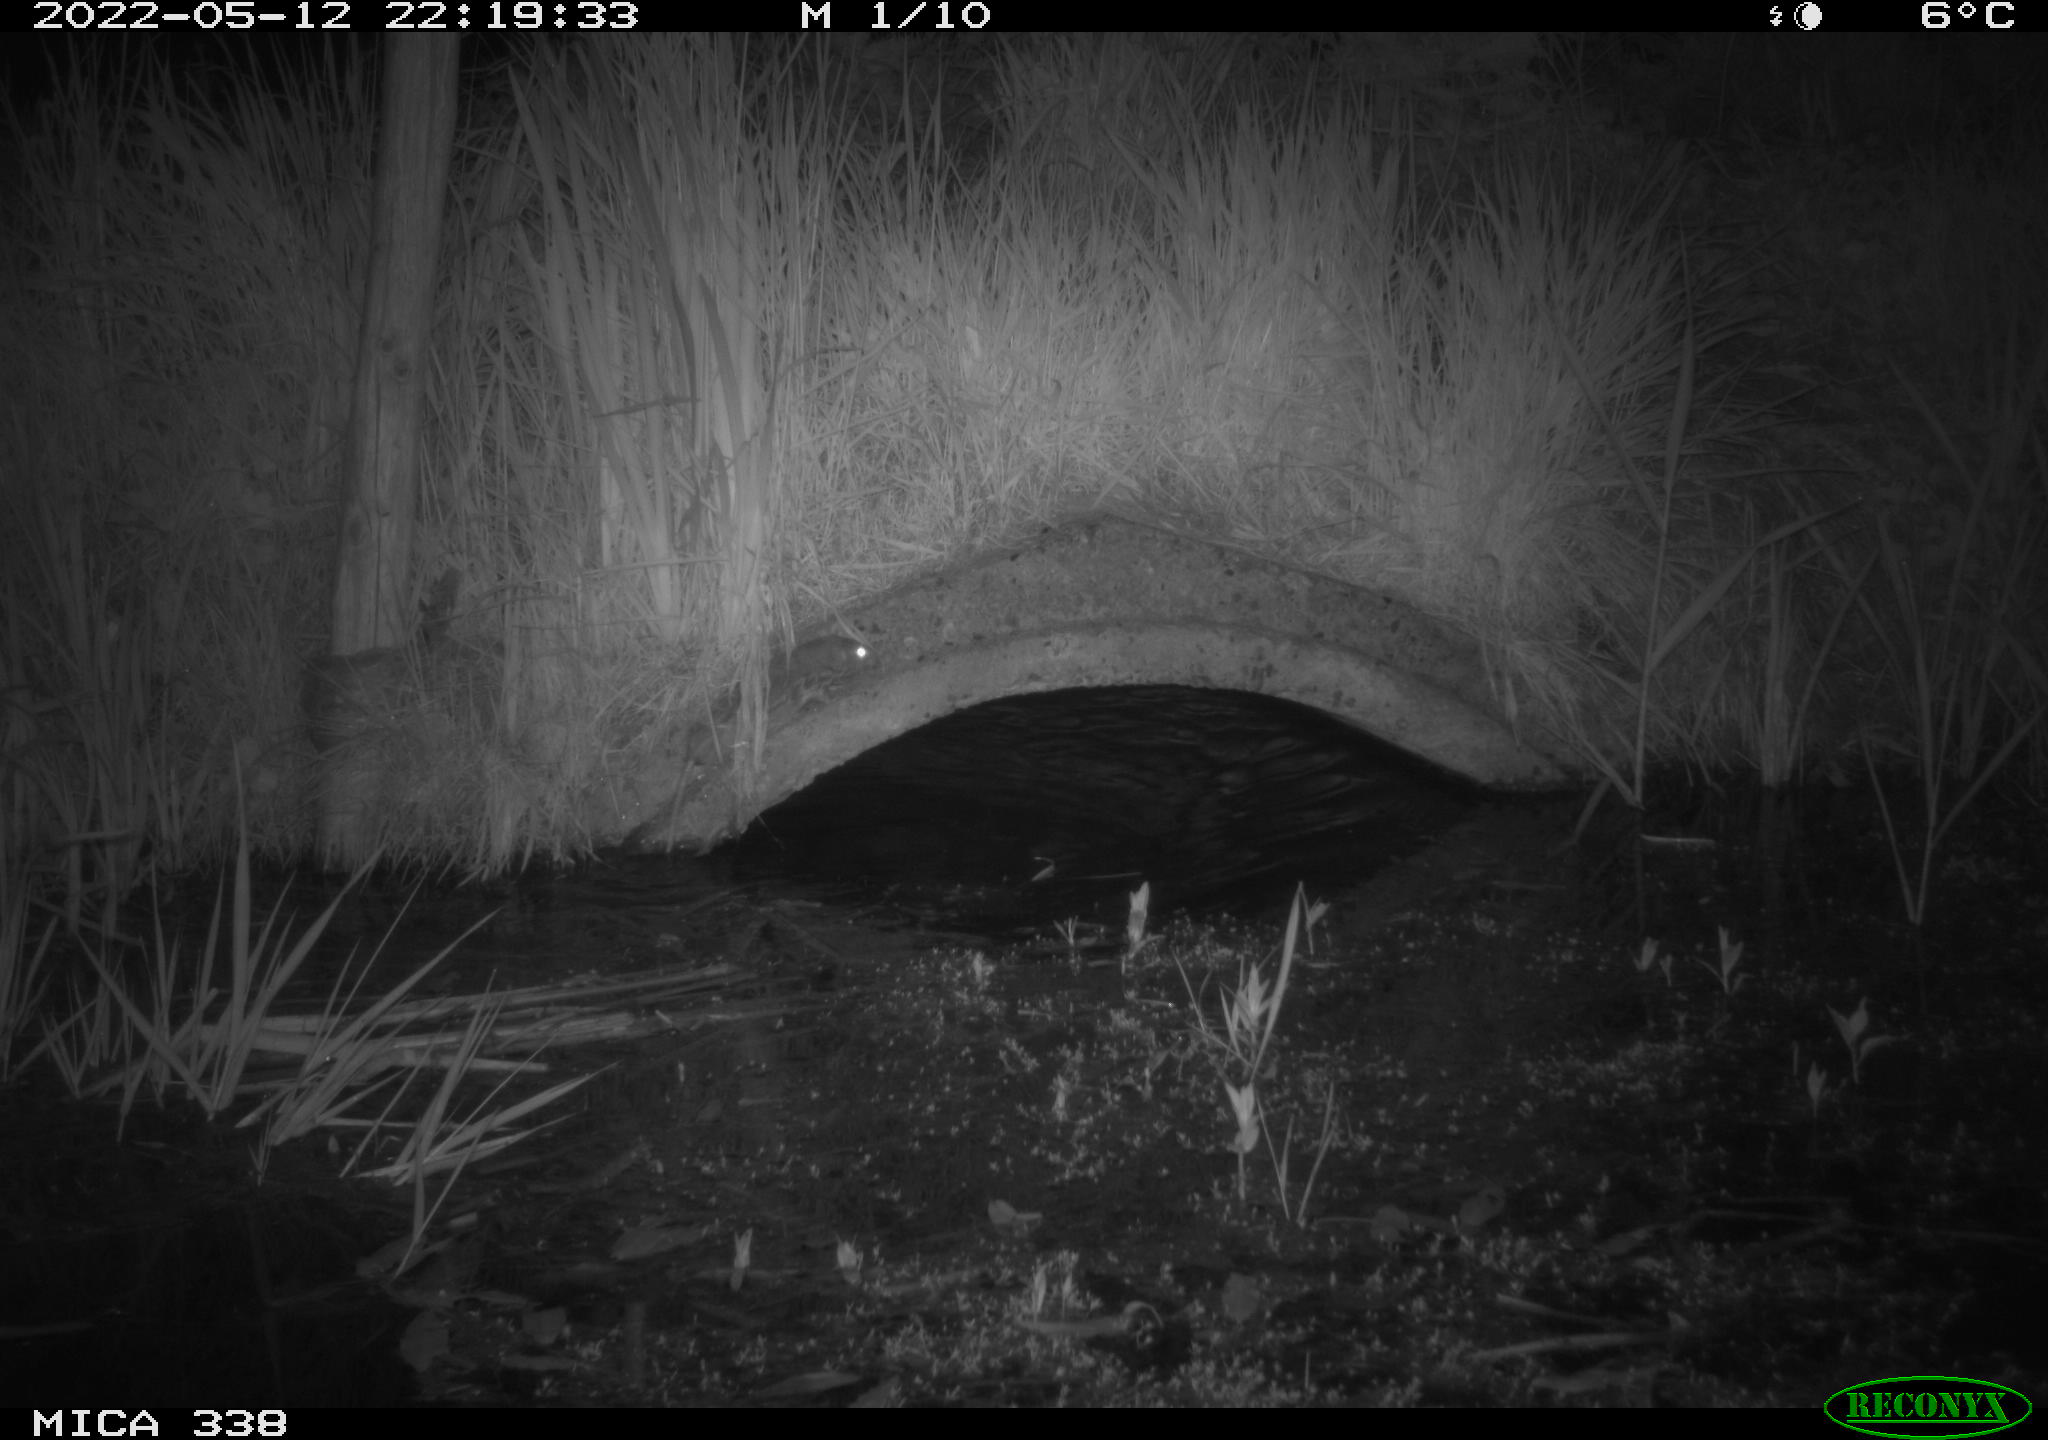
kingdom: Animalia
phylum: Chordata
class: Mammalia
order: Rodentia
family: Muridae
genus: Rattus
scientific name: Rattus norvegicus
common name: Brown rat
